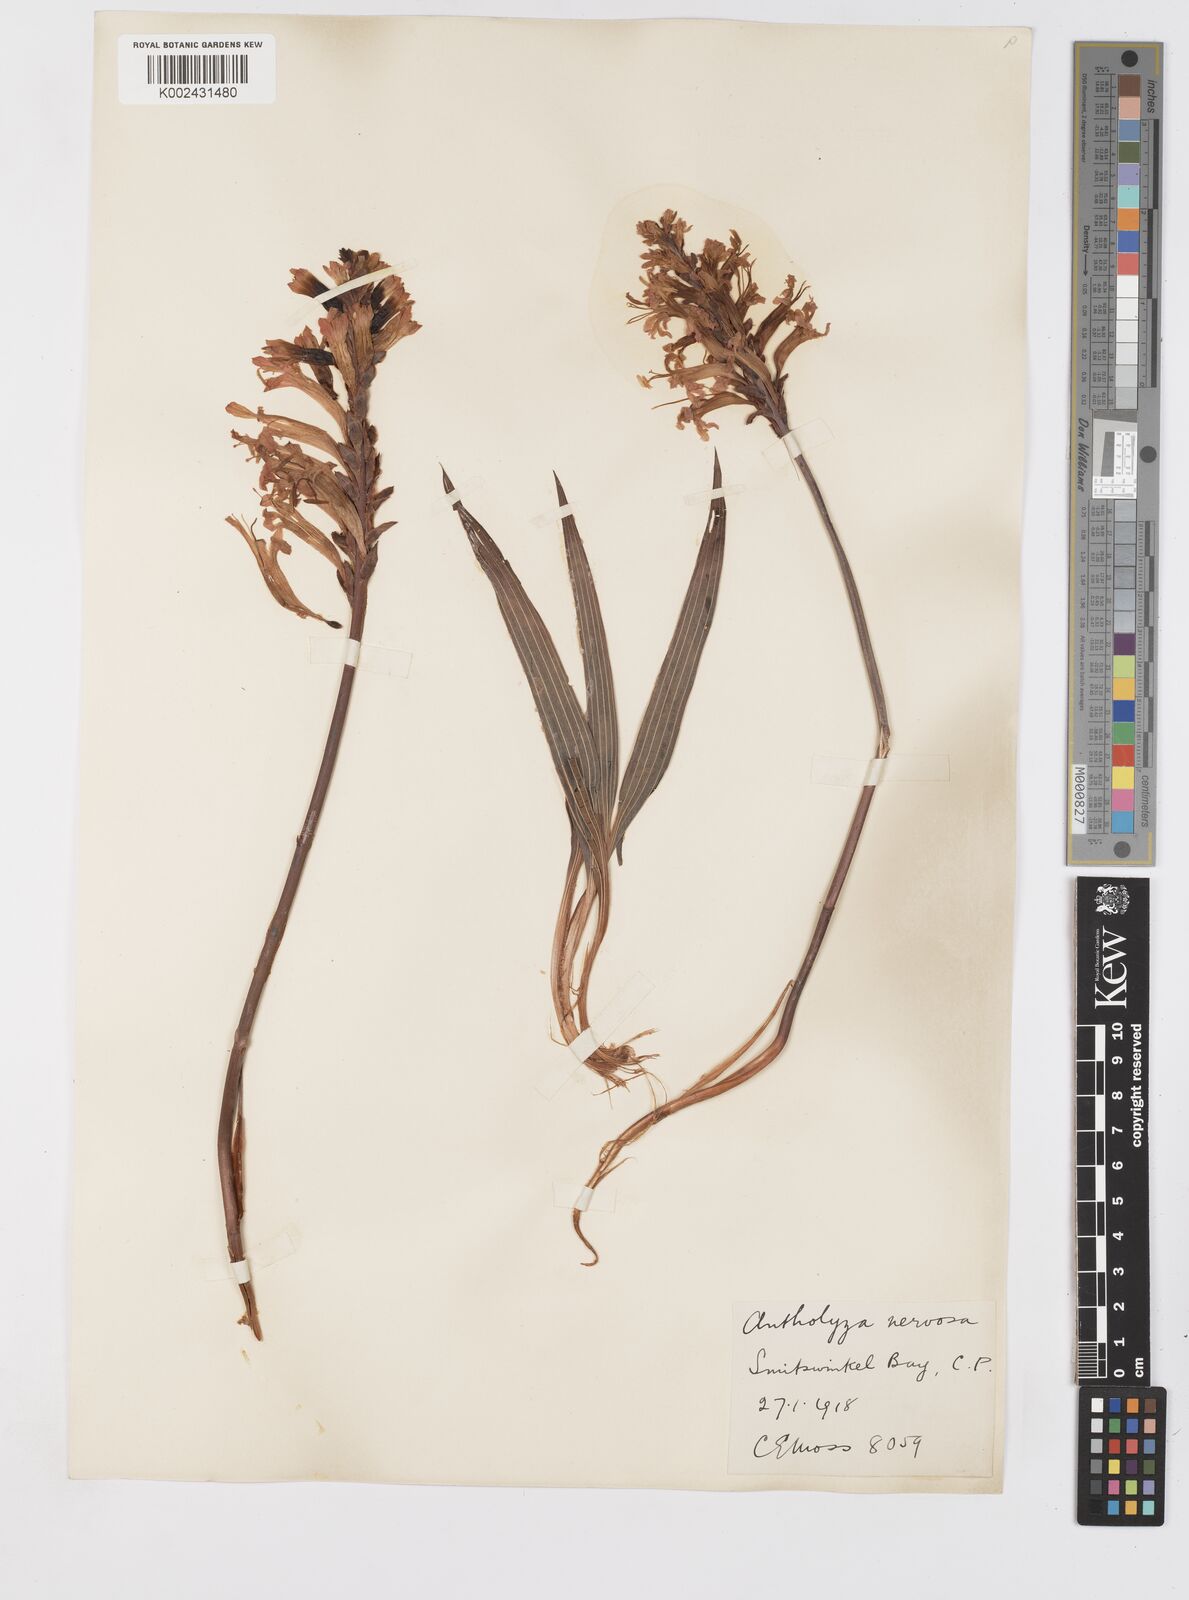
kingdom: Plantae
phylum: Tracheophyta
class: Liliopsida
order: Asparagales
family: Iridaceae
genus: Tritoniopsis
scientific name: Tritoniopsis nervosa
